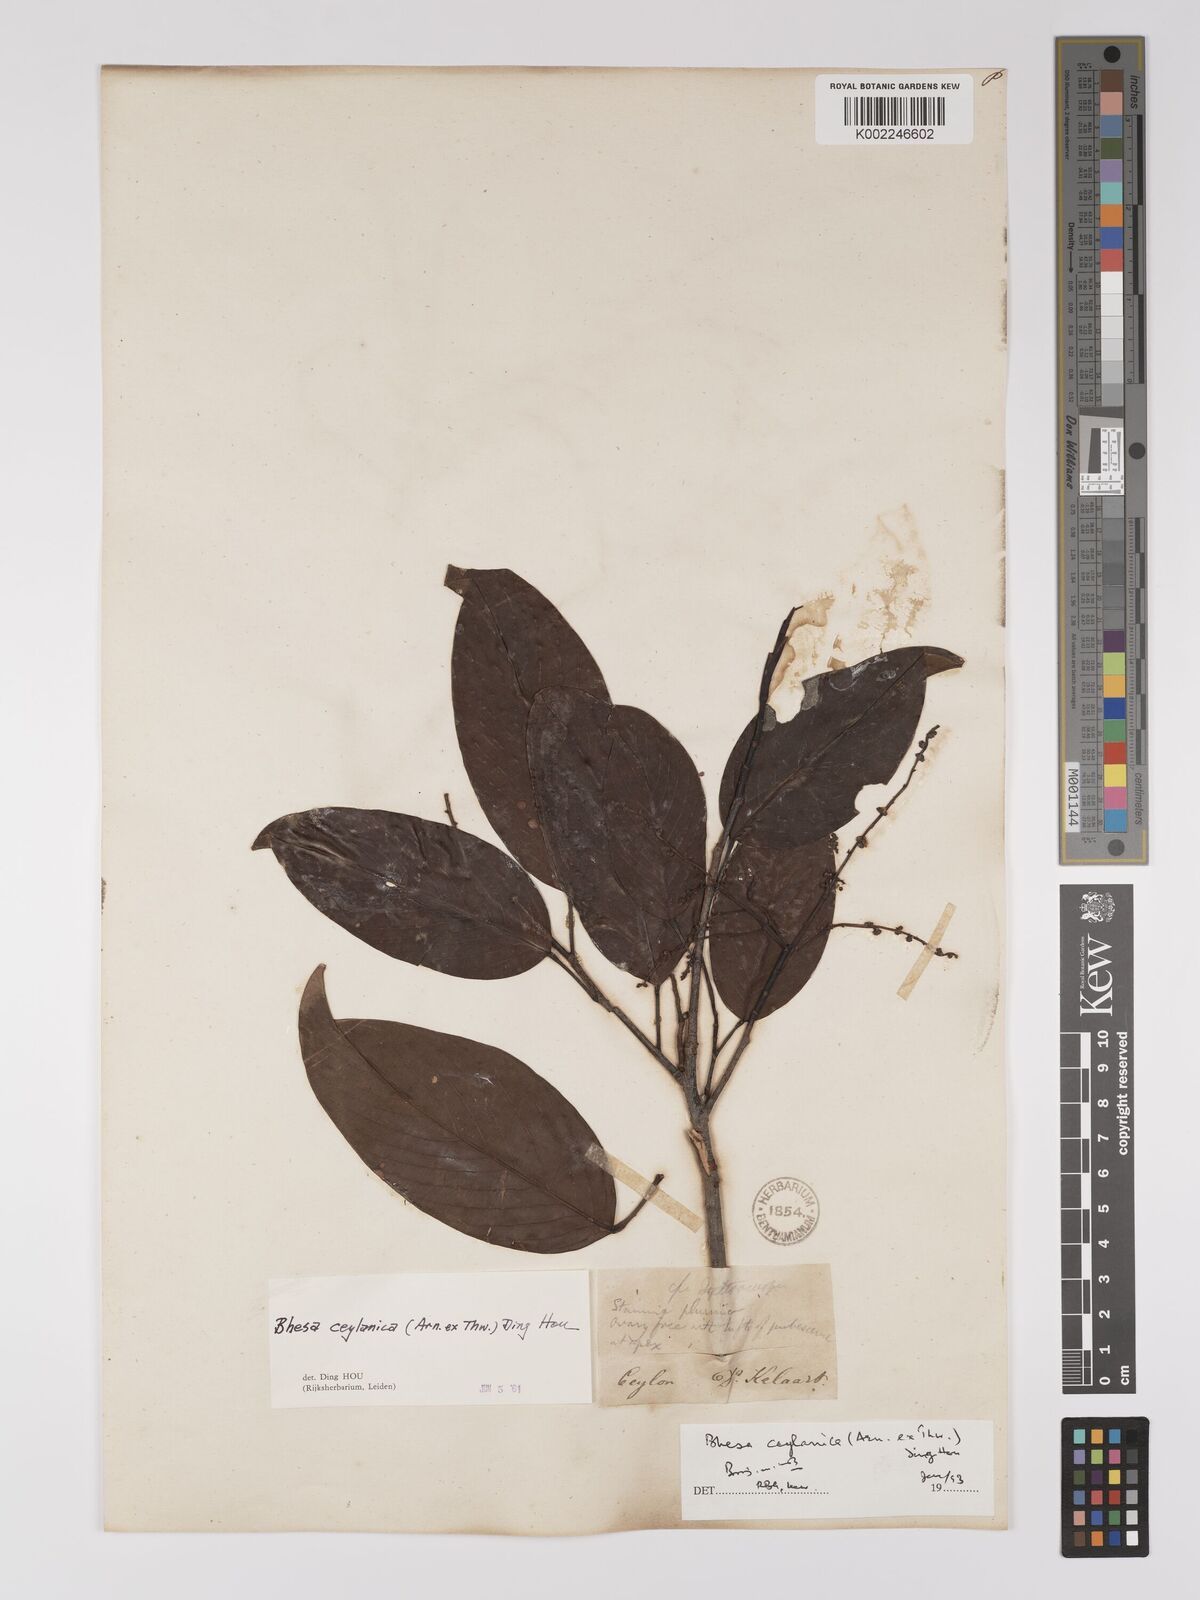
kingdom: Plantae
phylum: Tracheophyta
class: Magnoliopsida
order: Malpighiales
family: Centroplacaceae
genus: Bhesa
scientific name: Bhesa ceylanica
